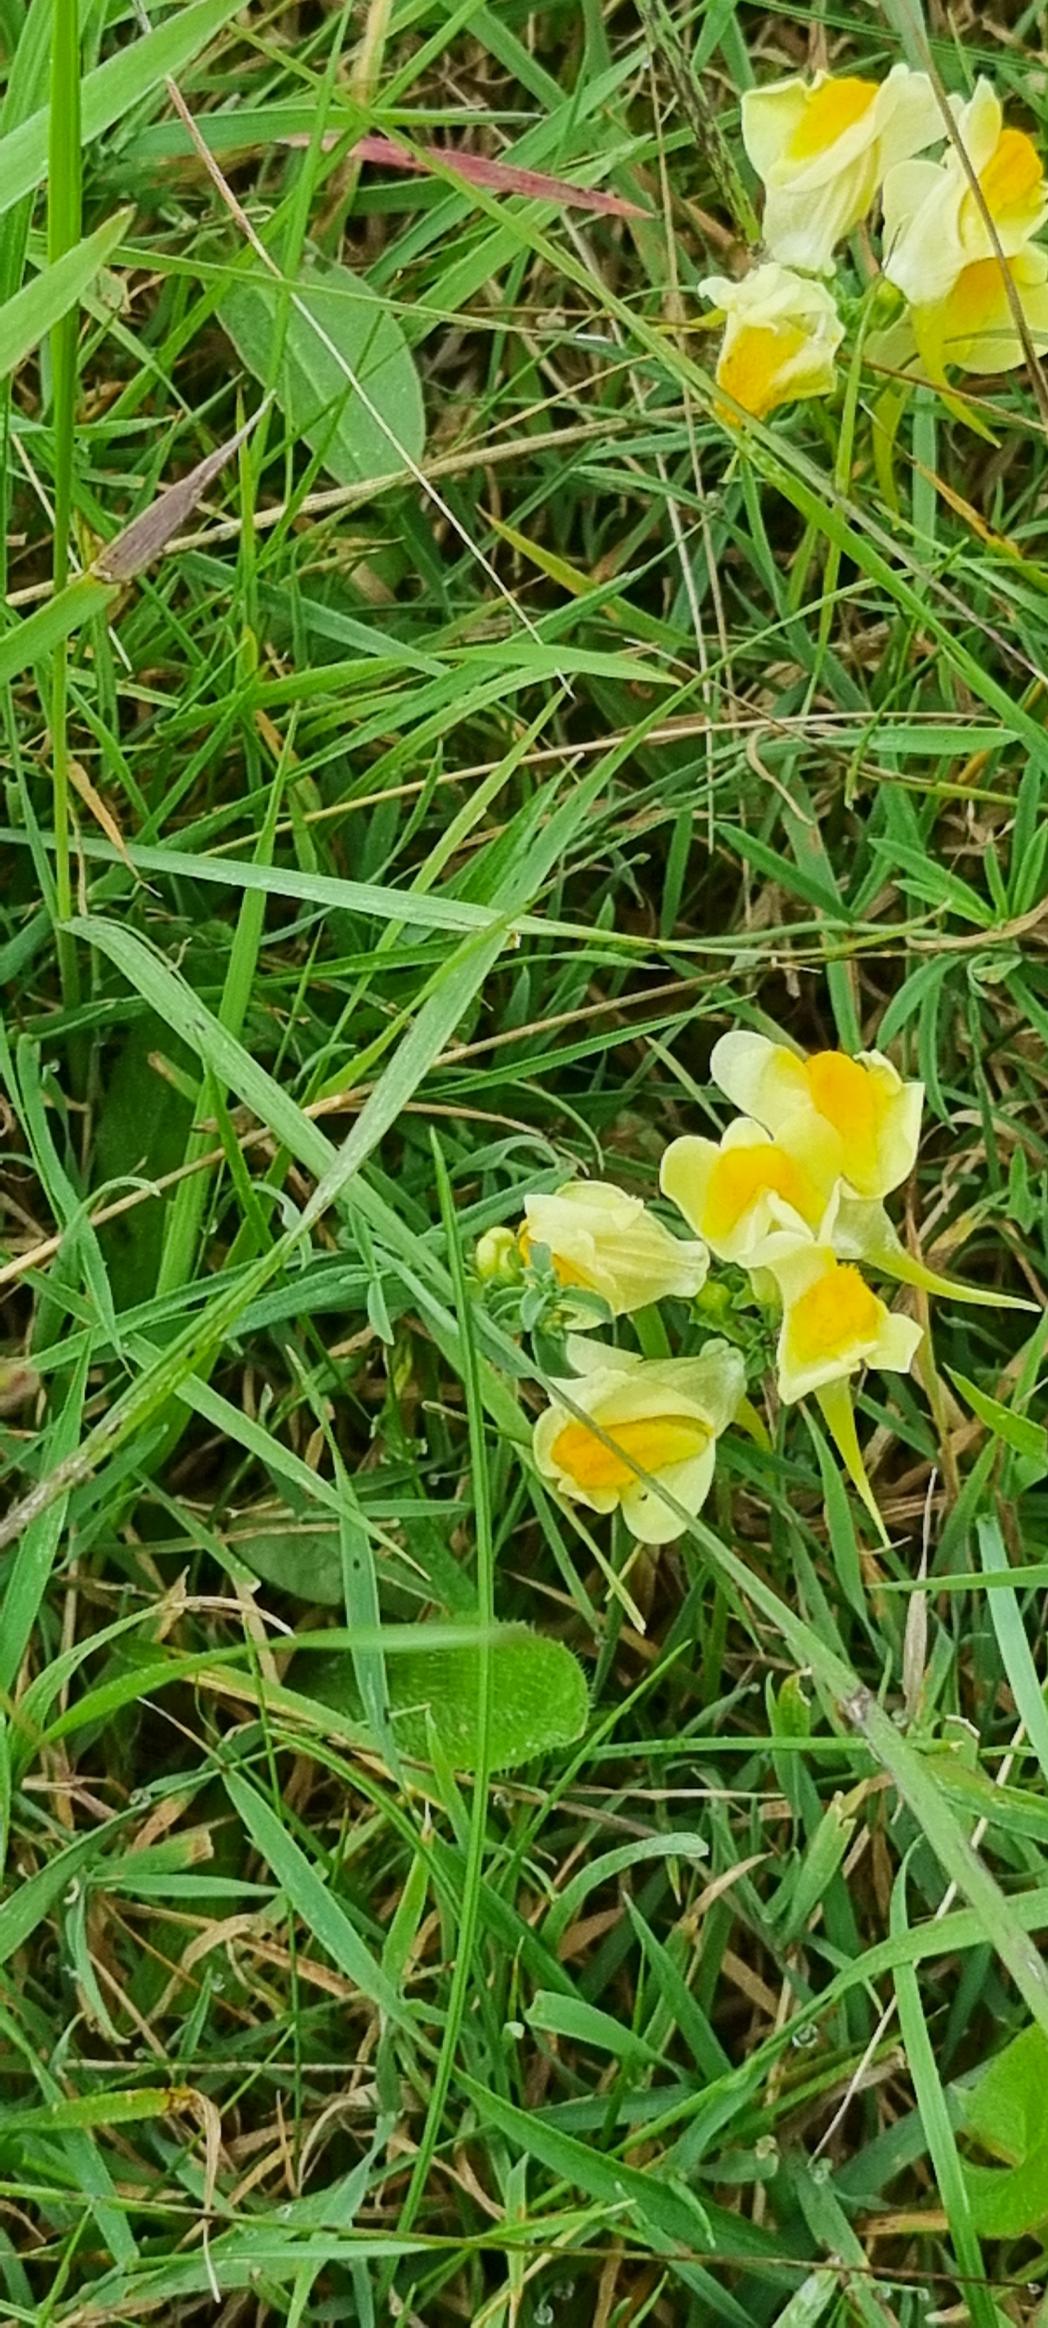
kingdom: Plantae
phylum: Tracheophyta
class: Magnoliopsida
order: Lamiales
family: Plantaginaceae
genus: Linaria
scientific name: Linaria vulgaris
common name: Almindelig torskemund
